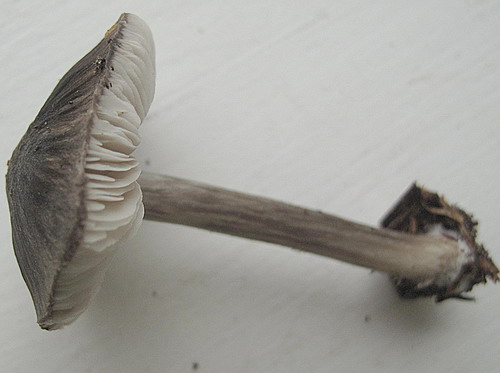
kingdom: Fungi
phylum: Basidiomycota
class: Agaricomycetes
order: Agaricales
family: Pluteaceae
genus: Pluteus
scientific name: Pluteus pouzarianus
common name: plantage-skærmhat
